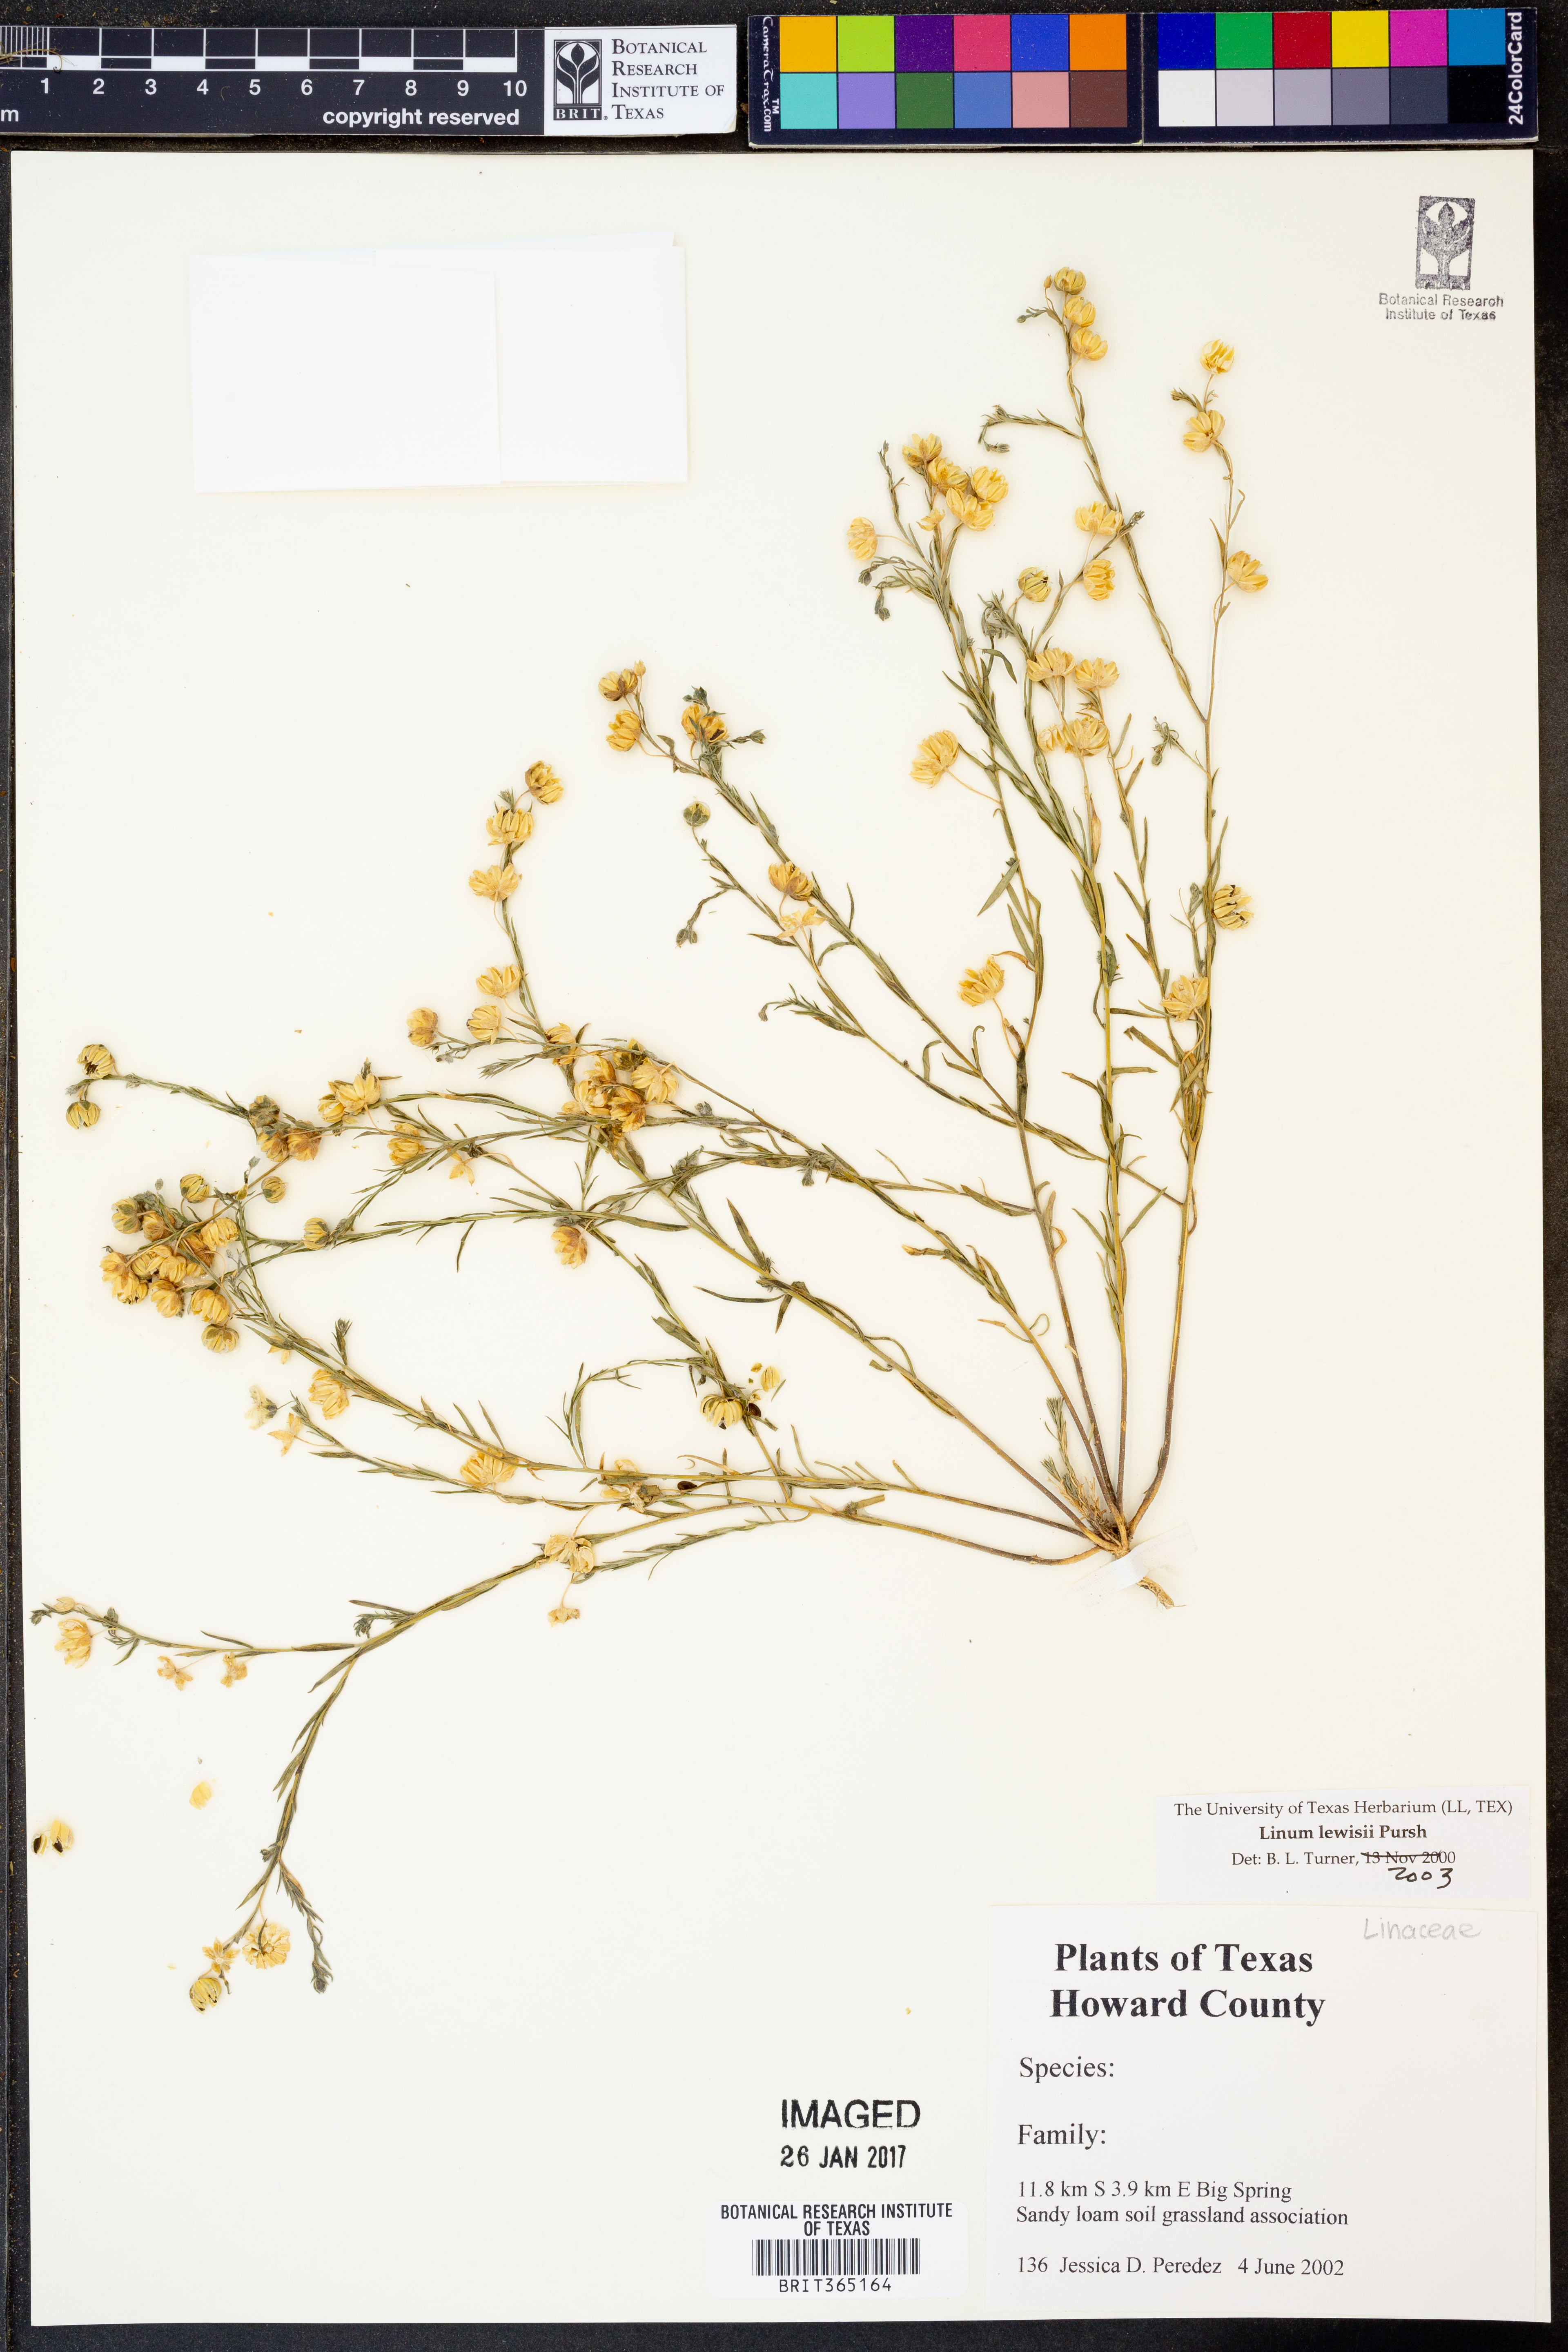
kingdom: Plantae
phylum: Tracheophyta
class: Magnoliopsida
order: Malpighiales
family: Linaceae
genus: Linum
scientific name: Linum lewisii
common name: Prairie flax
